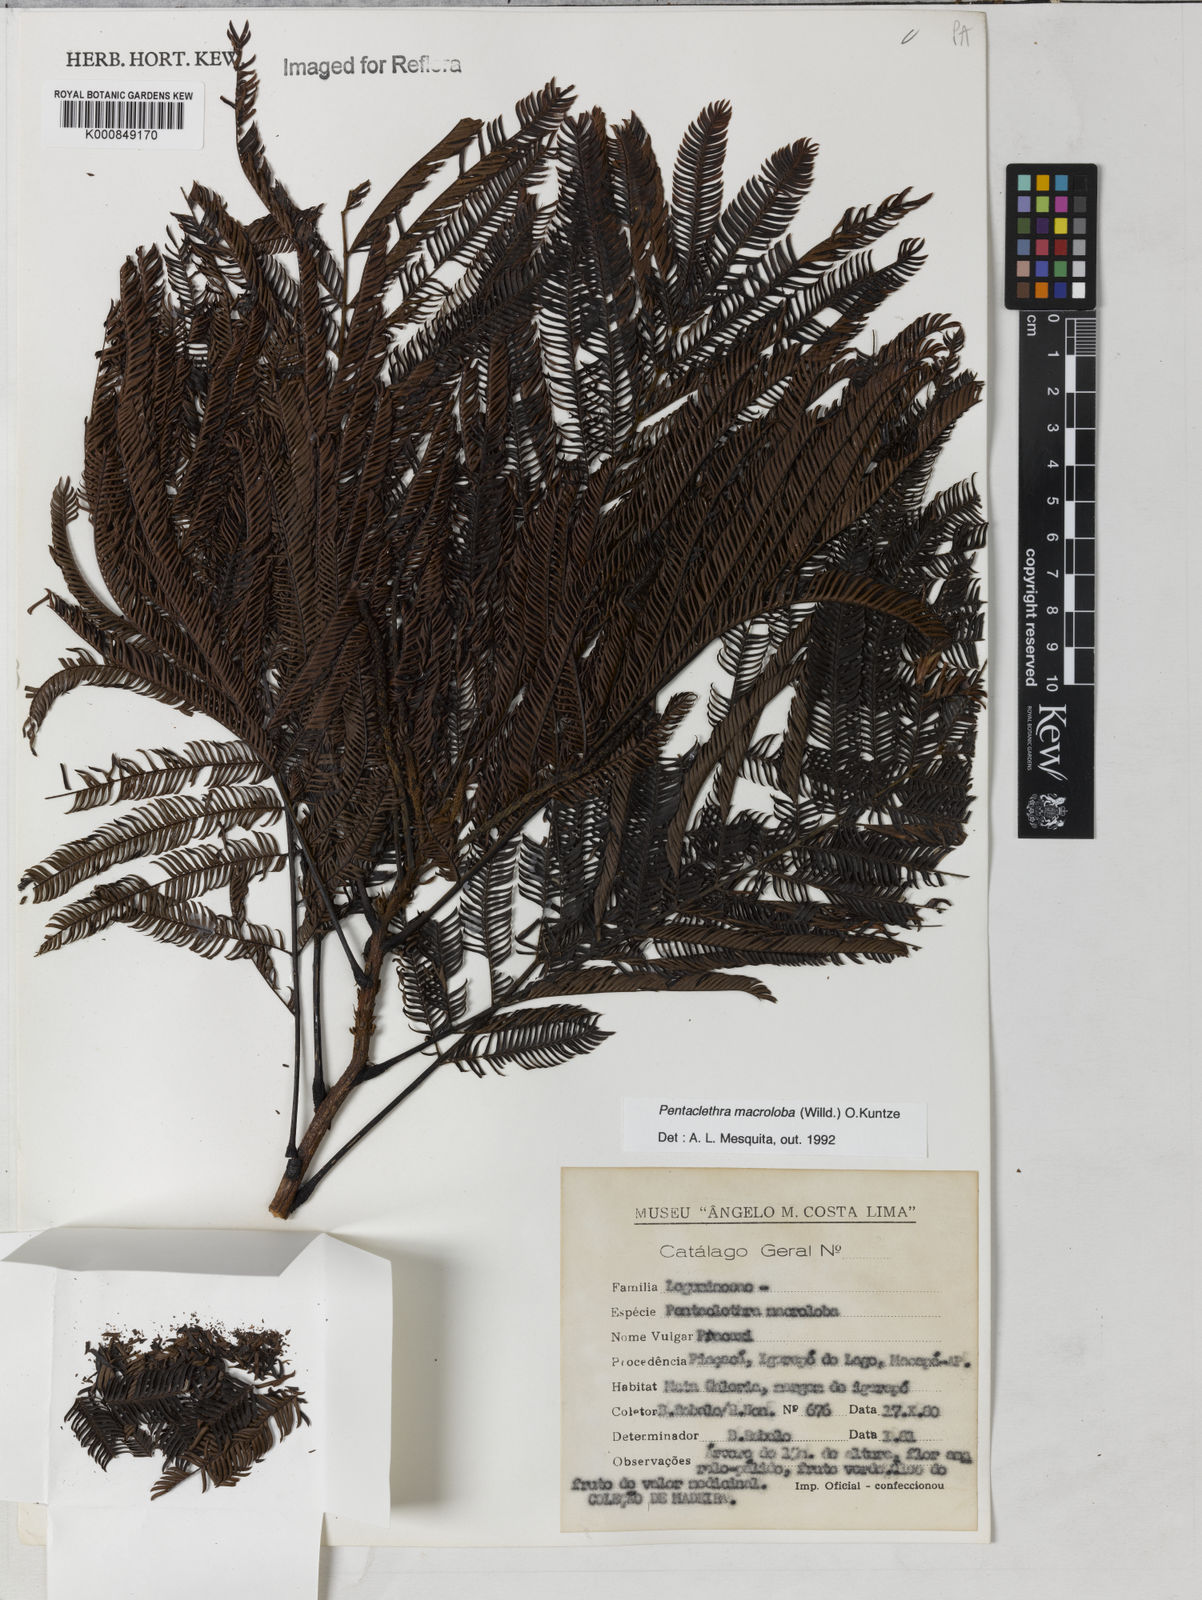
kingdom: Plantae
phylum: Tracheophyta
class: Magnoliopsida
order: Fabales
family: Fabaceae
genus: Pentaclethra
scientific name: Pentaclethra macroloba
